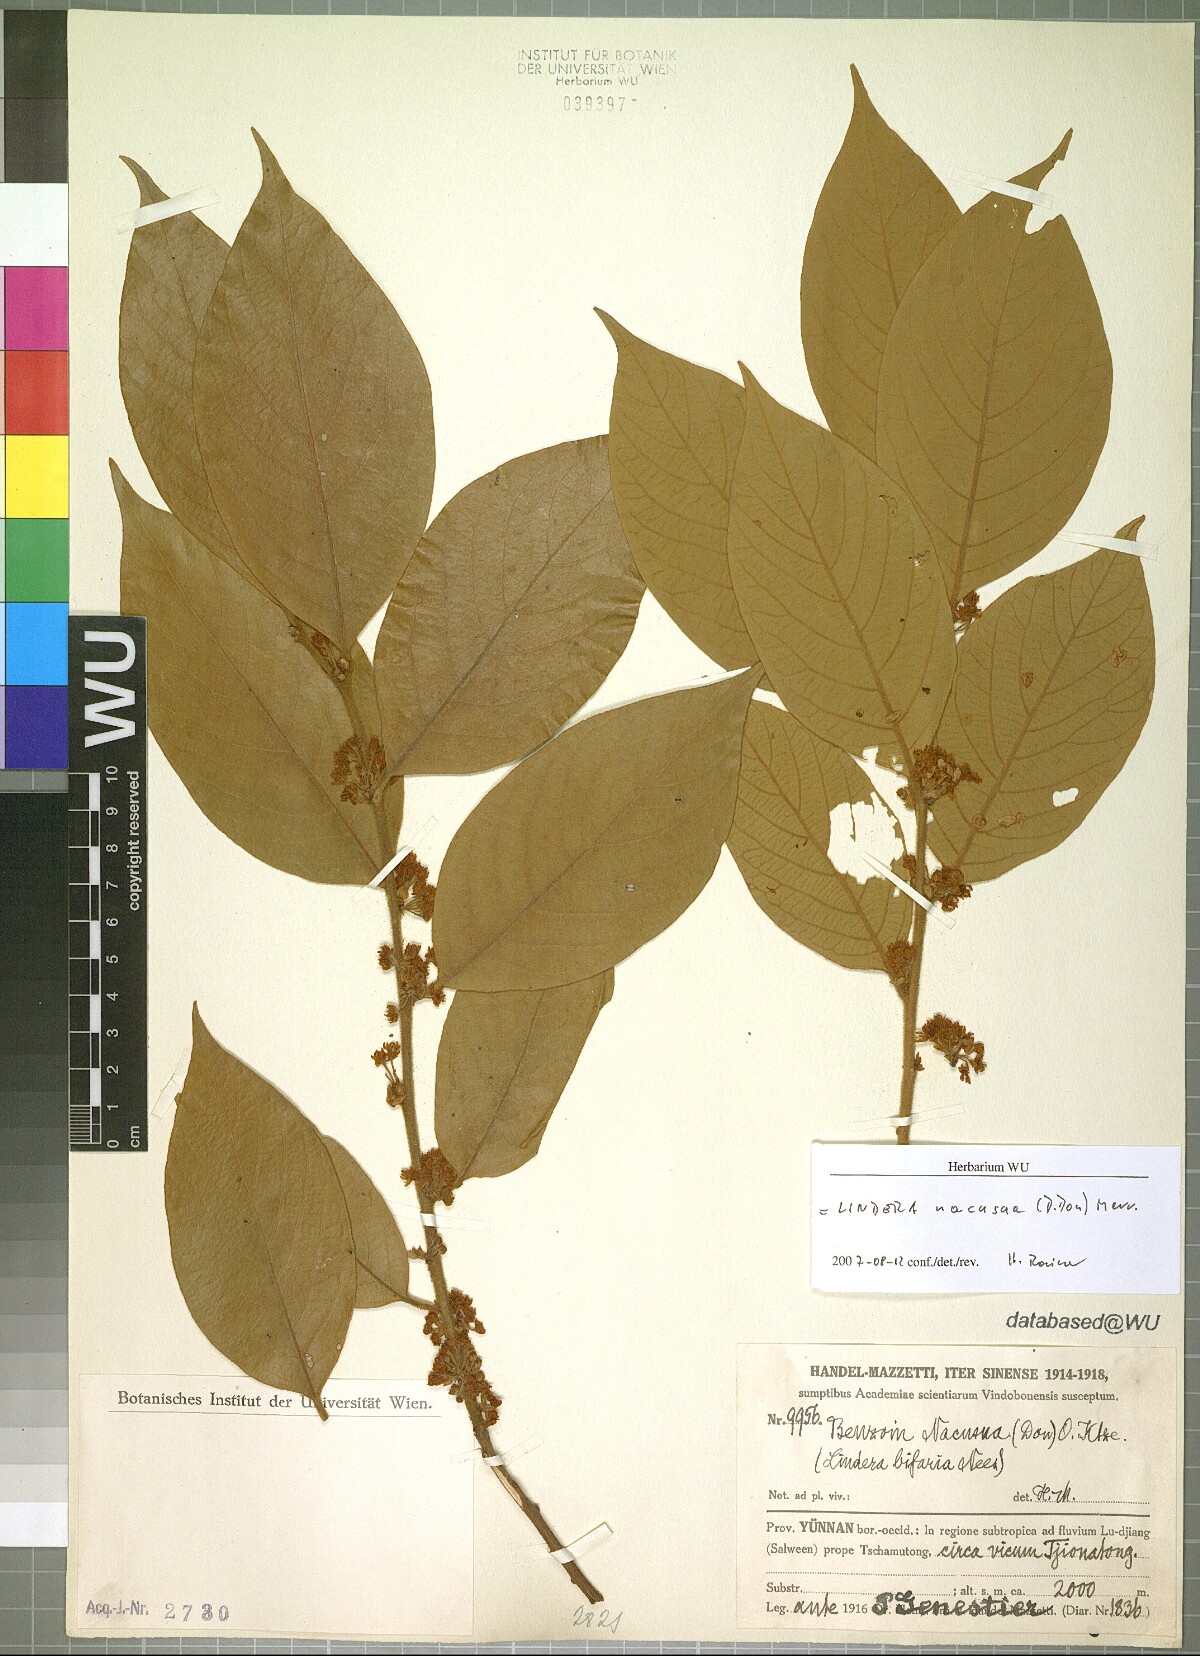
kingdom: Plantae
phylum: Tracheophyta
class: Magnoliopsida
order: Laurales
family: Lauraceae
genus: Lindera
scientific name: Lindera nacusua
